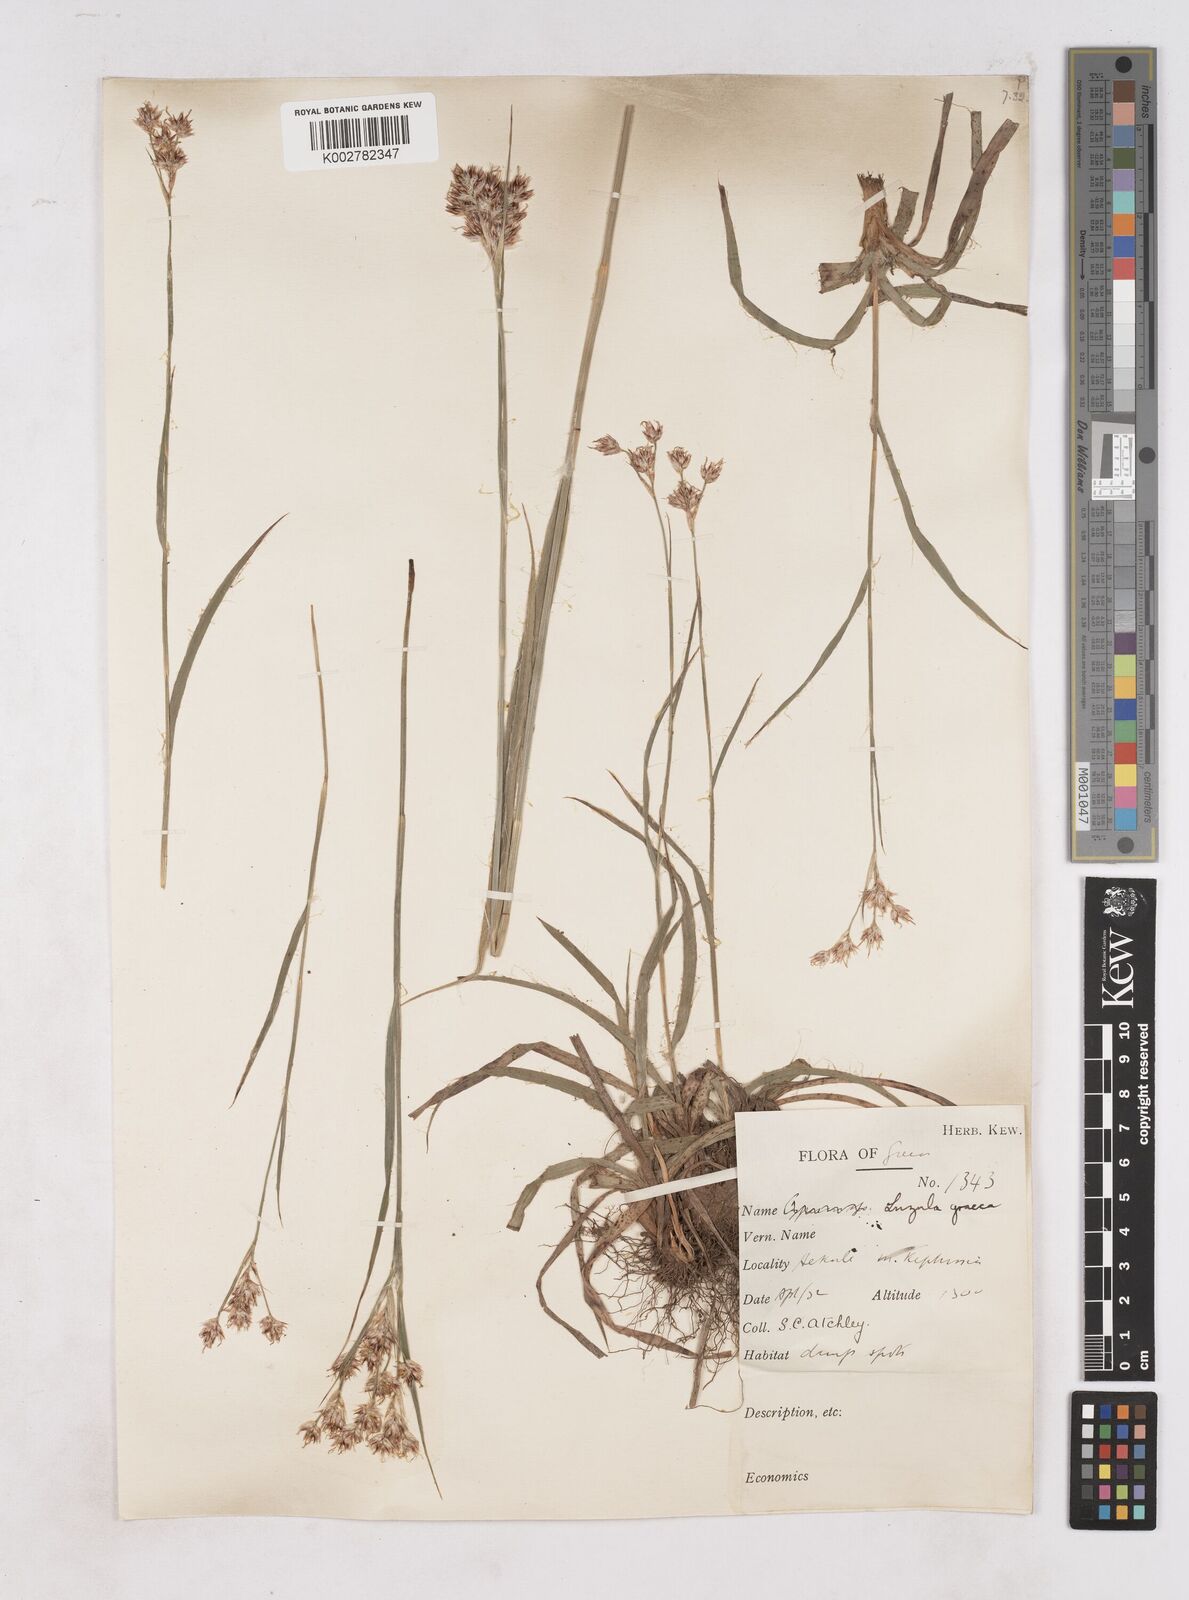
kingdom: Plantae
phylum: Tracheophyta
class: Liliopsida
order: Poales
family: Juncaceae
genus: Luzula
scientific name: Luzula nodulosa
